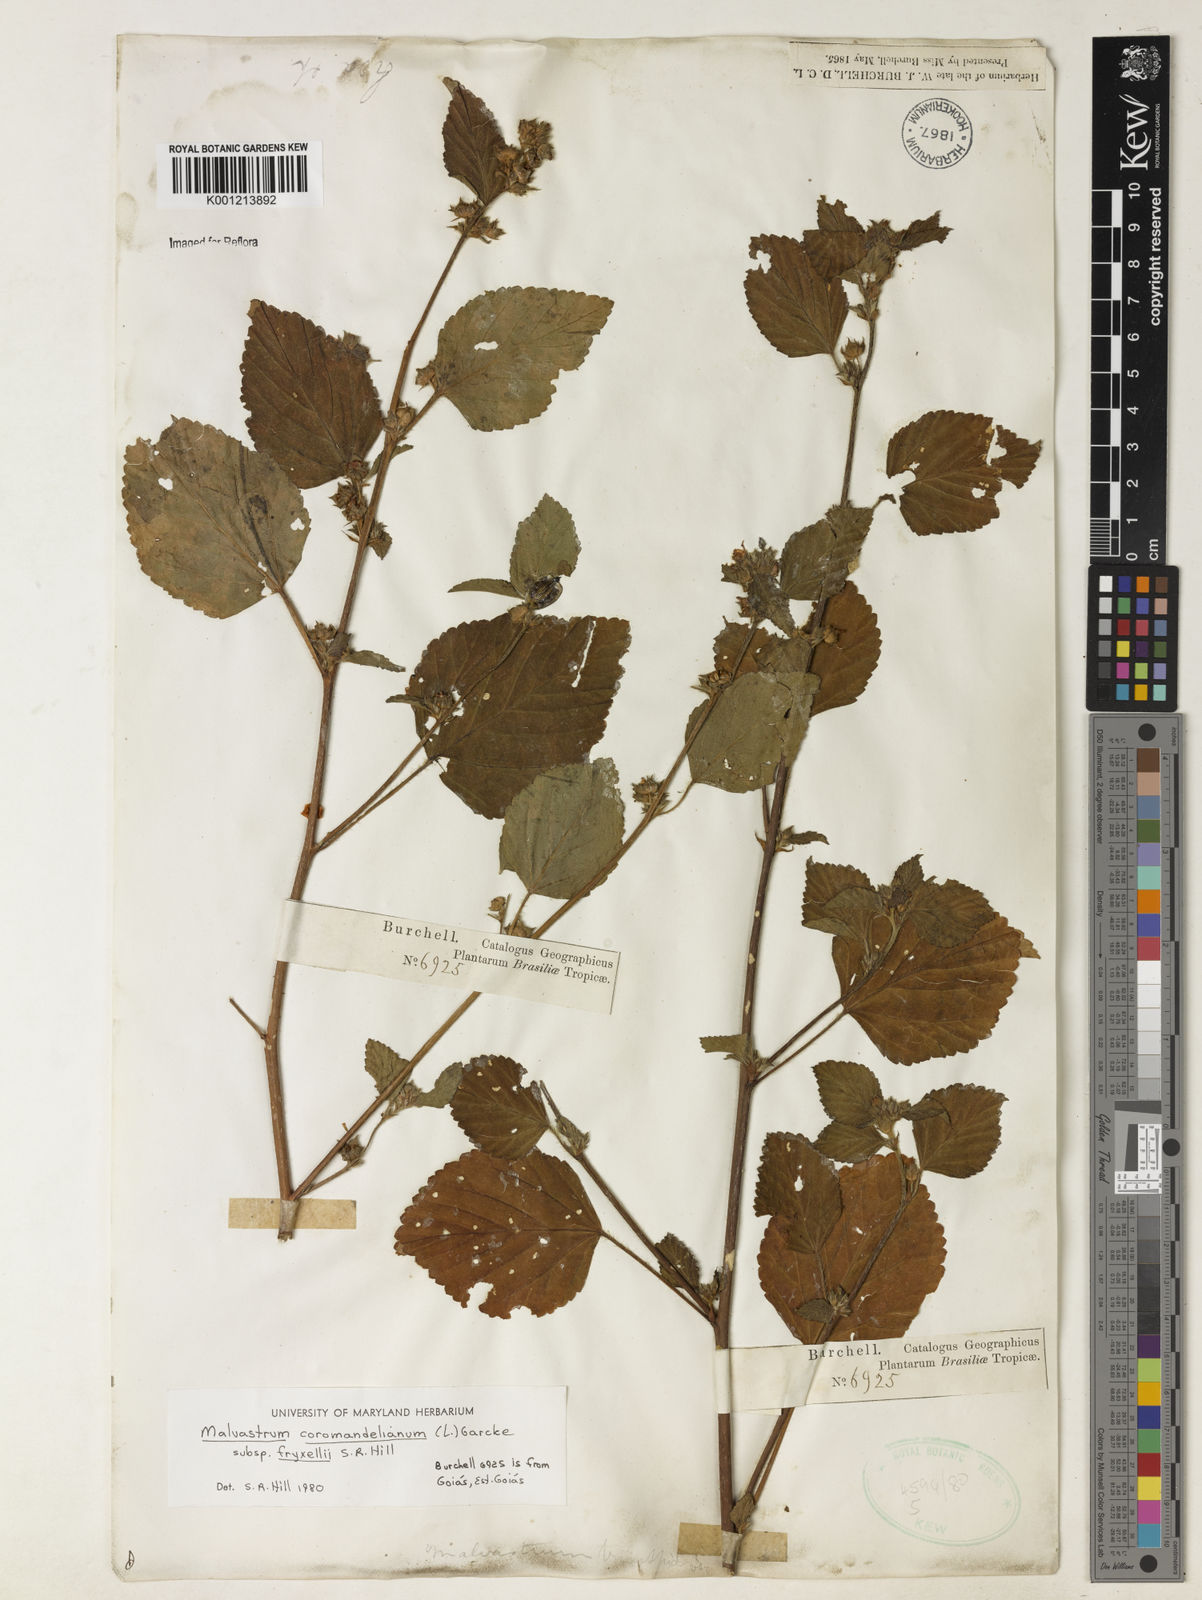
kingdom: Plantae
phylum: Tracheophyta
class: Magnoliopsida
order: Malvales
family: Malvaceae
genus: Malvastrum
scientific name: Malvastrum coromandelianum
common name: Threelobe false mallow
